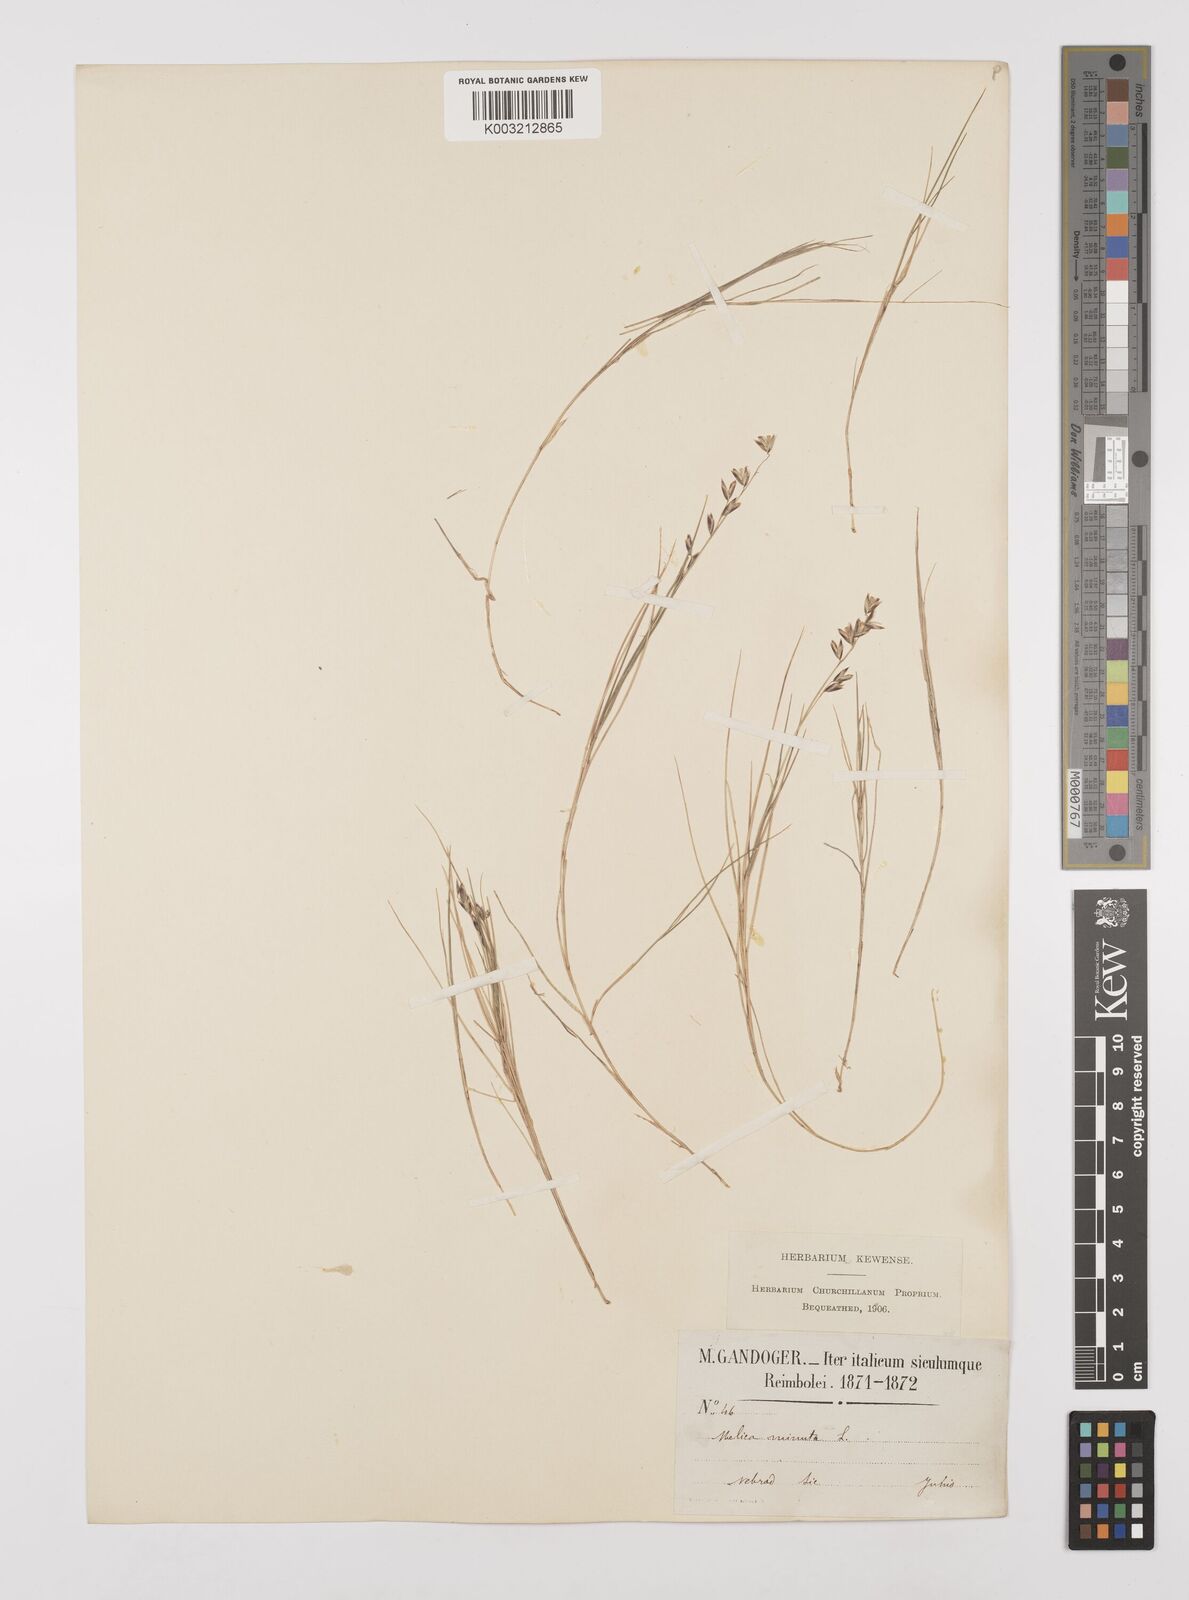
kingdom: Plantae
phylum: Tracheophyta
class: Liliopsida
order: Poales
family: Poaceae
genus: Melica
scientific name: Melica minuta
